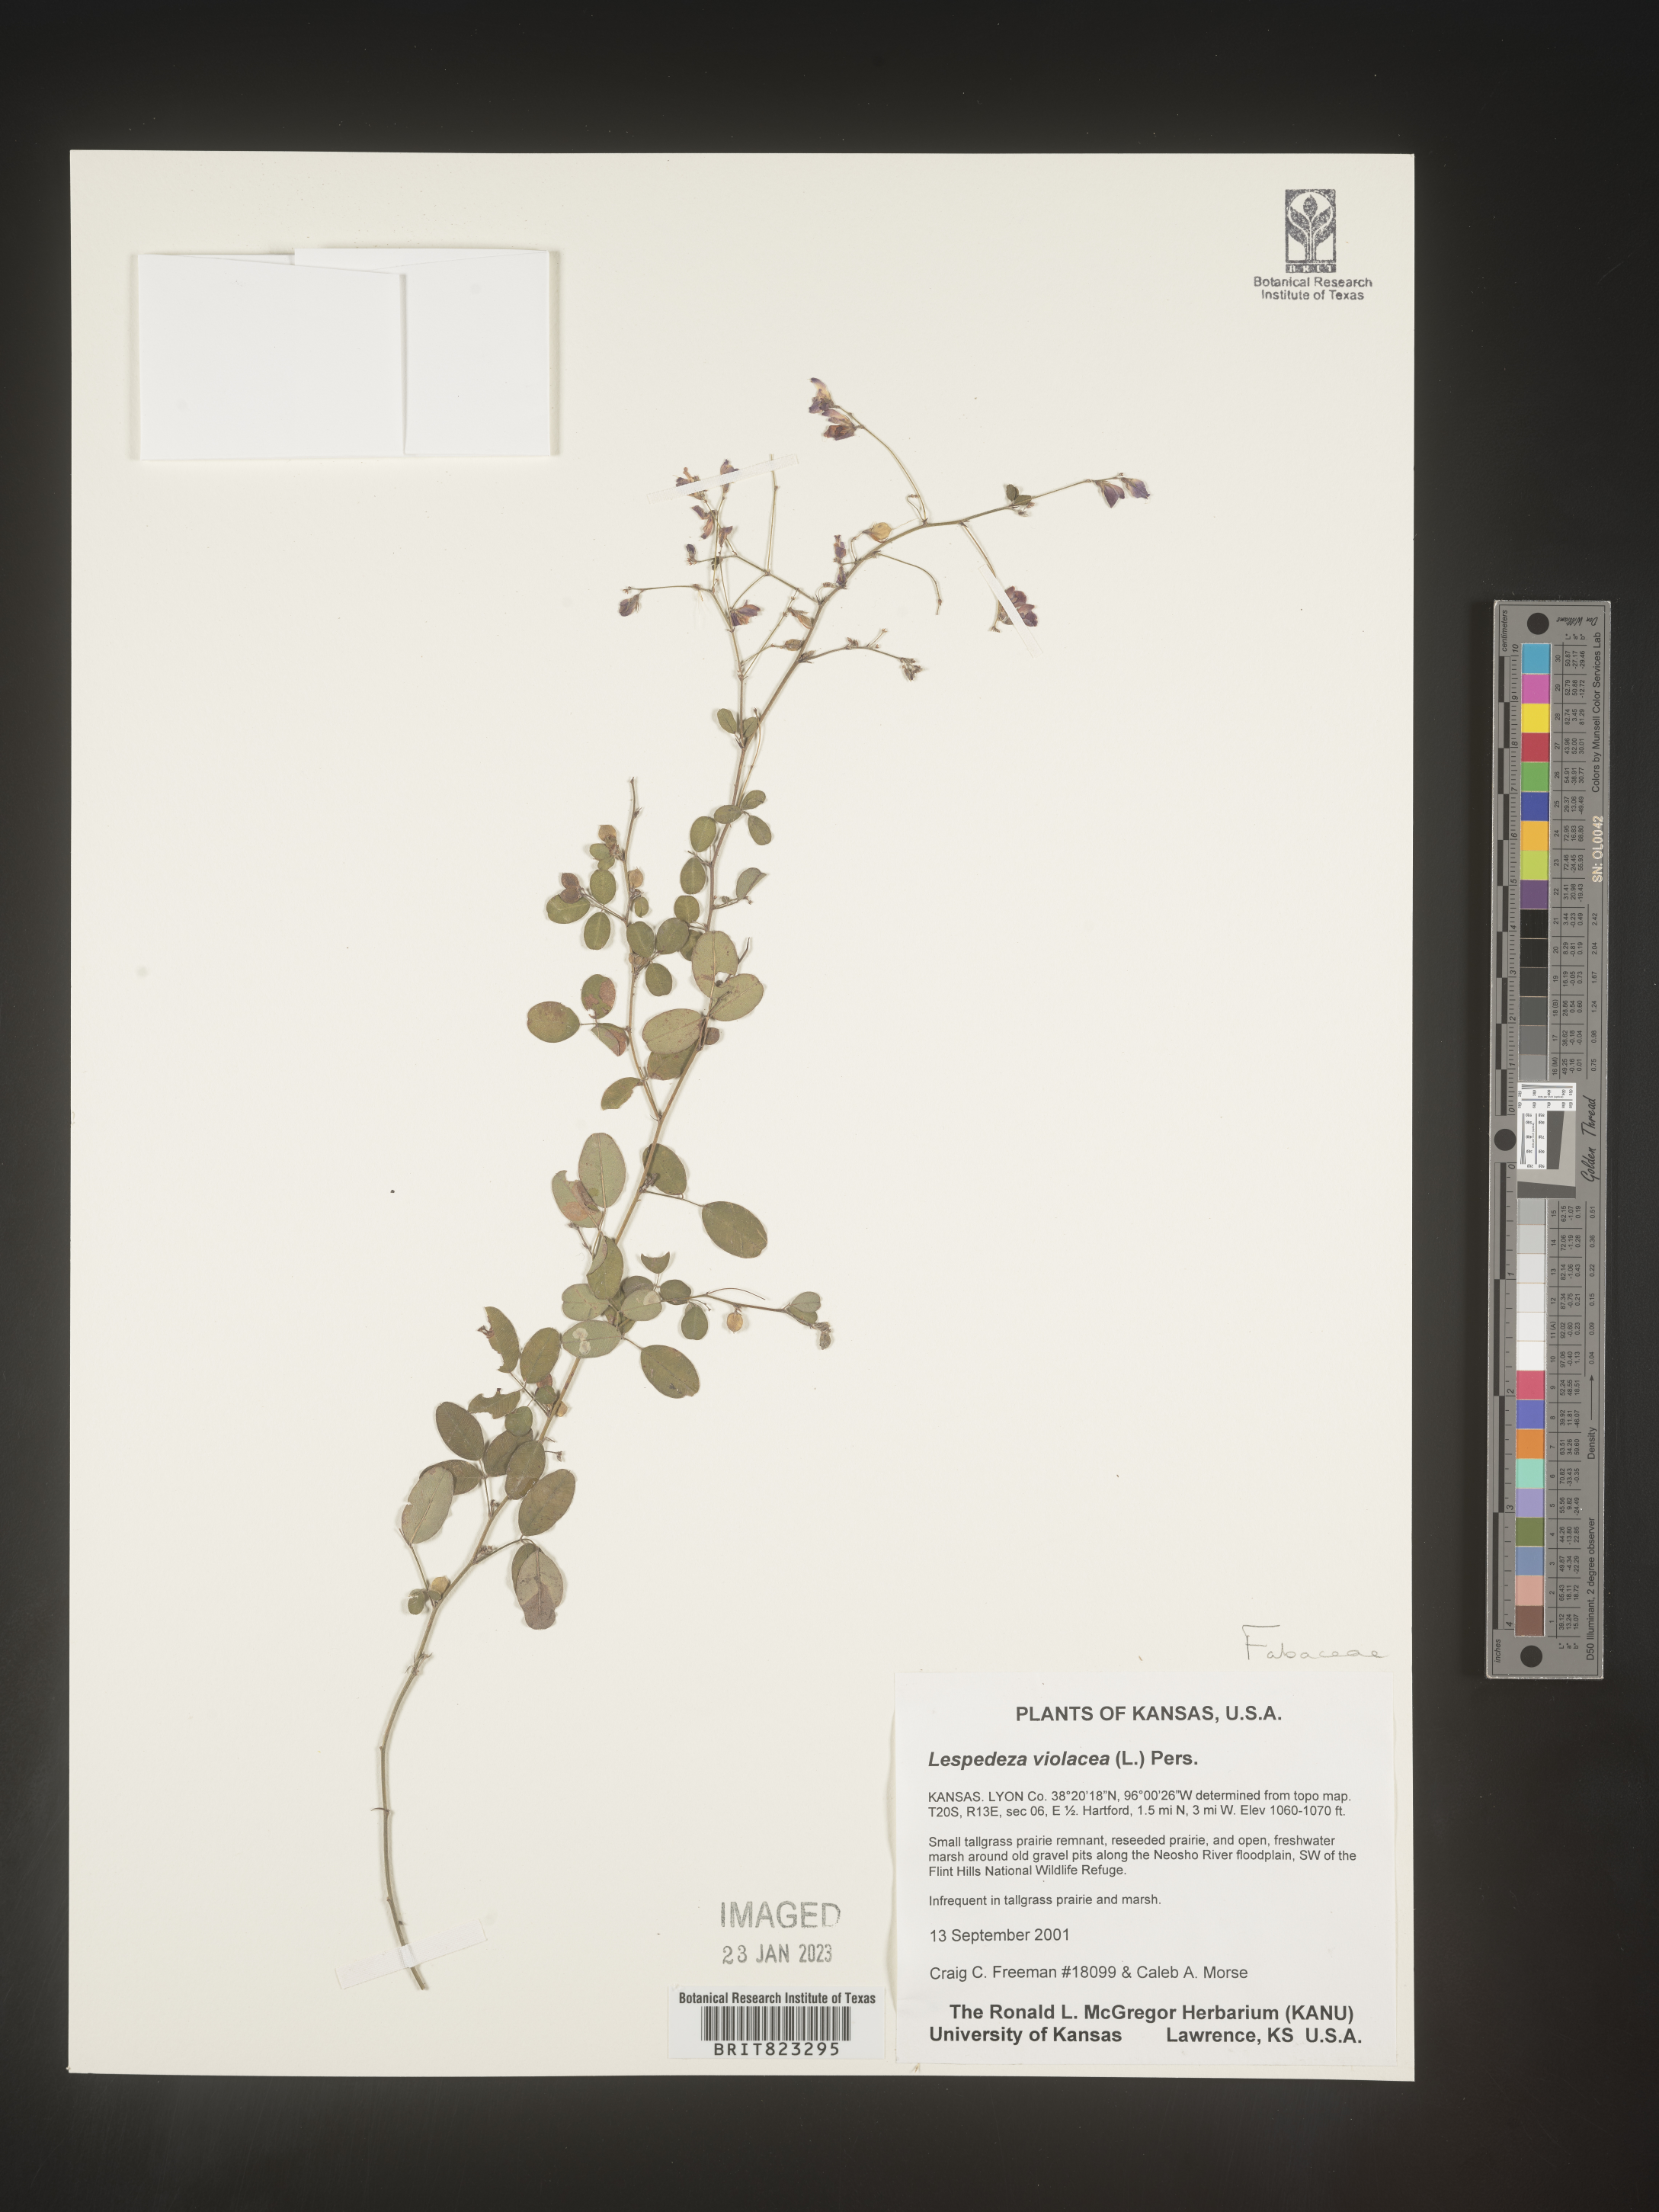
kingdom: Plantae
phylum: Tracheophyta
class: Magnoliopsida
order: Fabales
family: Fabaceae
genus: Lespedeza
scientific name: Lespedeza violacea
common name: Wand bush-clover
